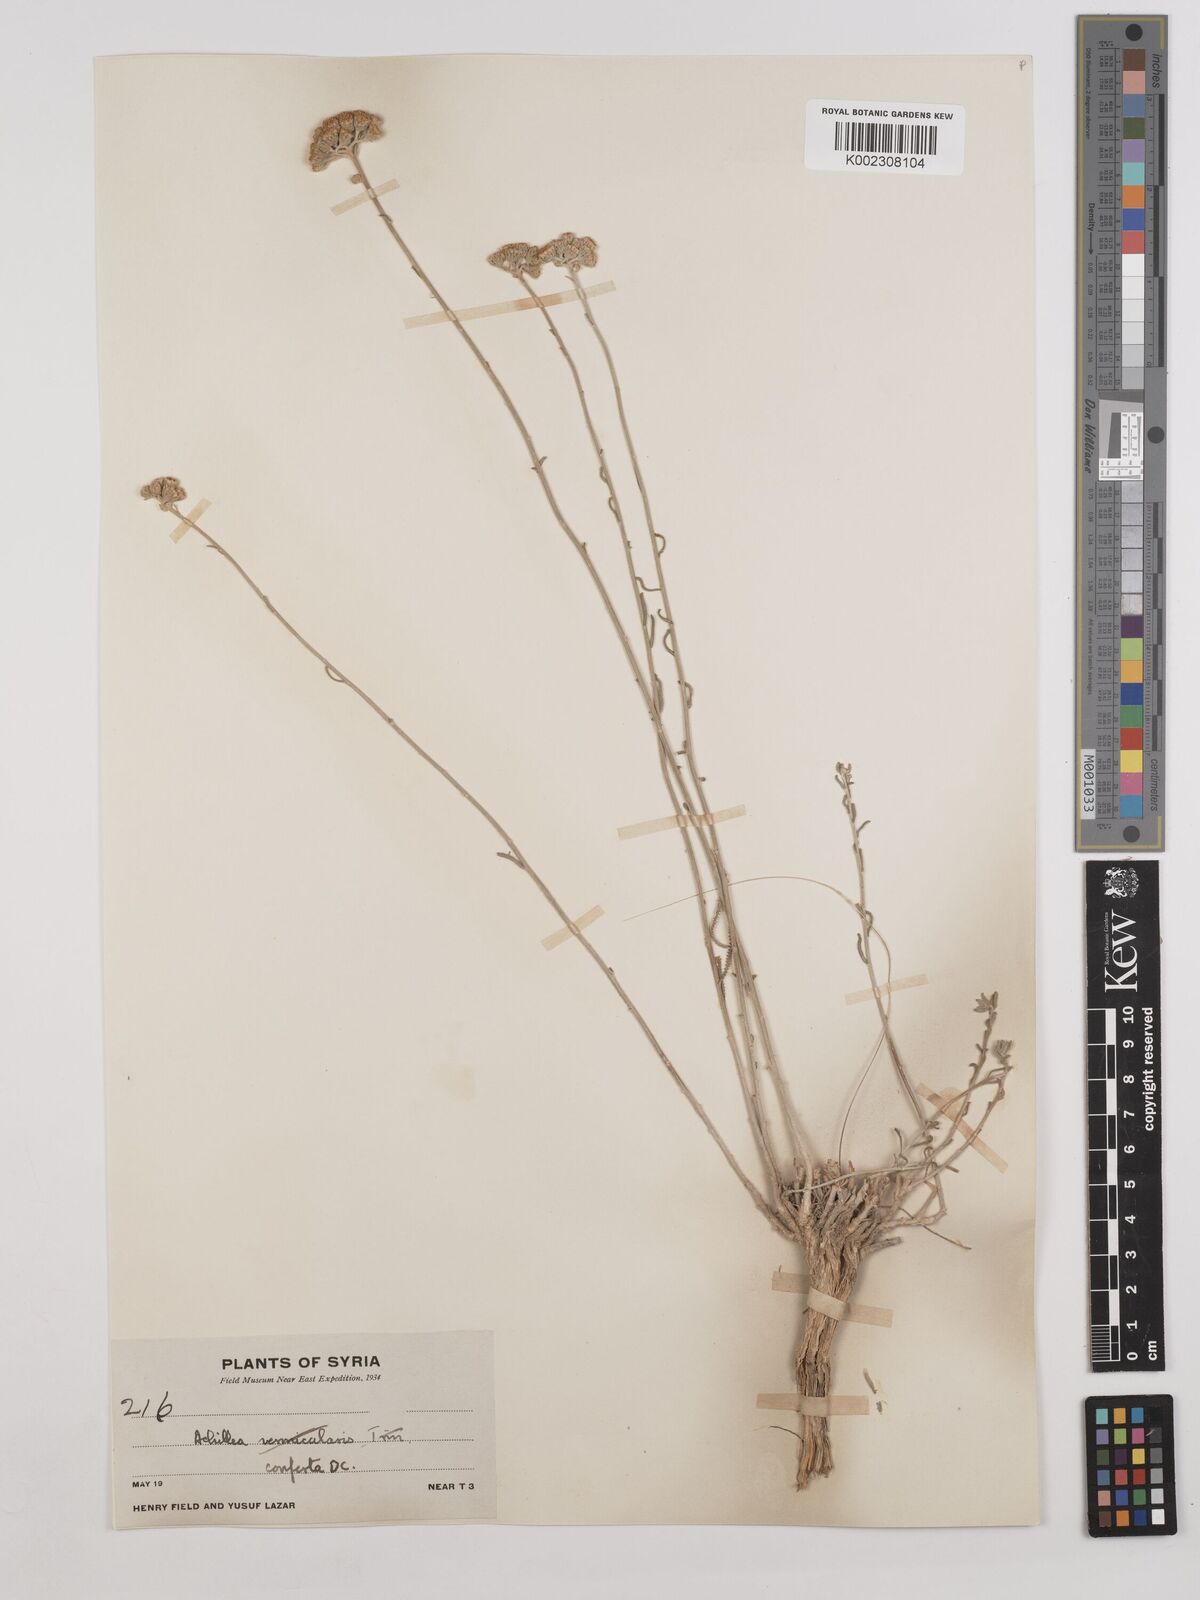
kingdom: Plantae
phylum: Tracheophyta
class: Magnoliopsida
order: Asterales
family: Asteraceae
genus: Achillea
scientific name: Achillea conferta
